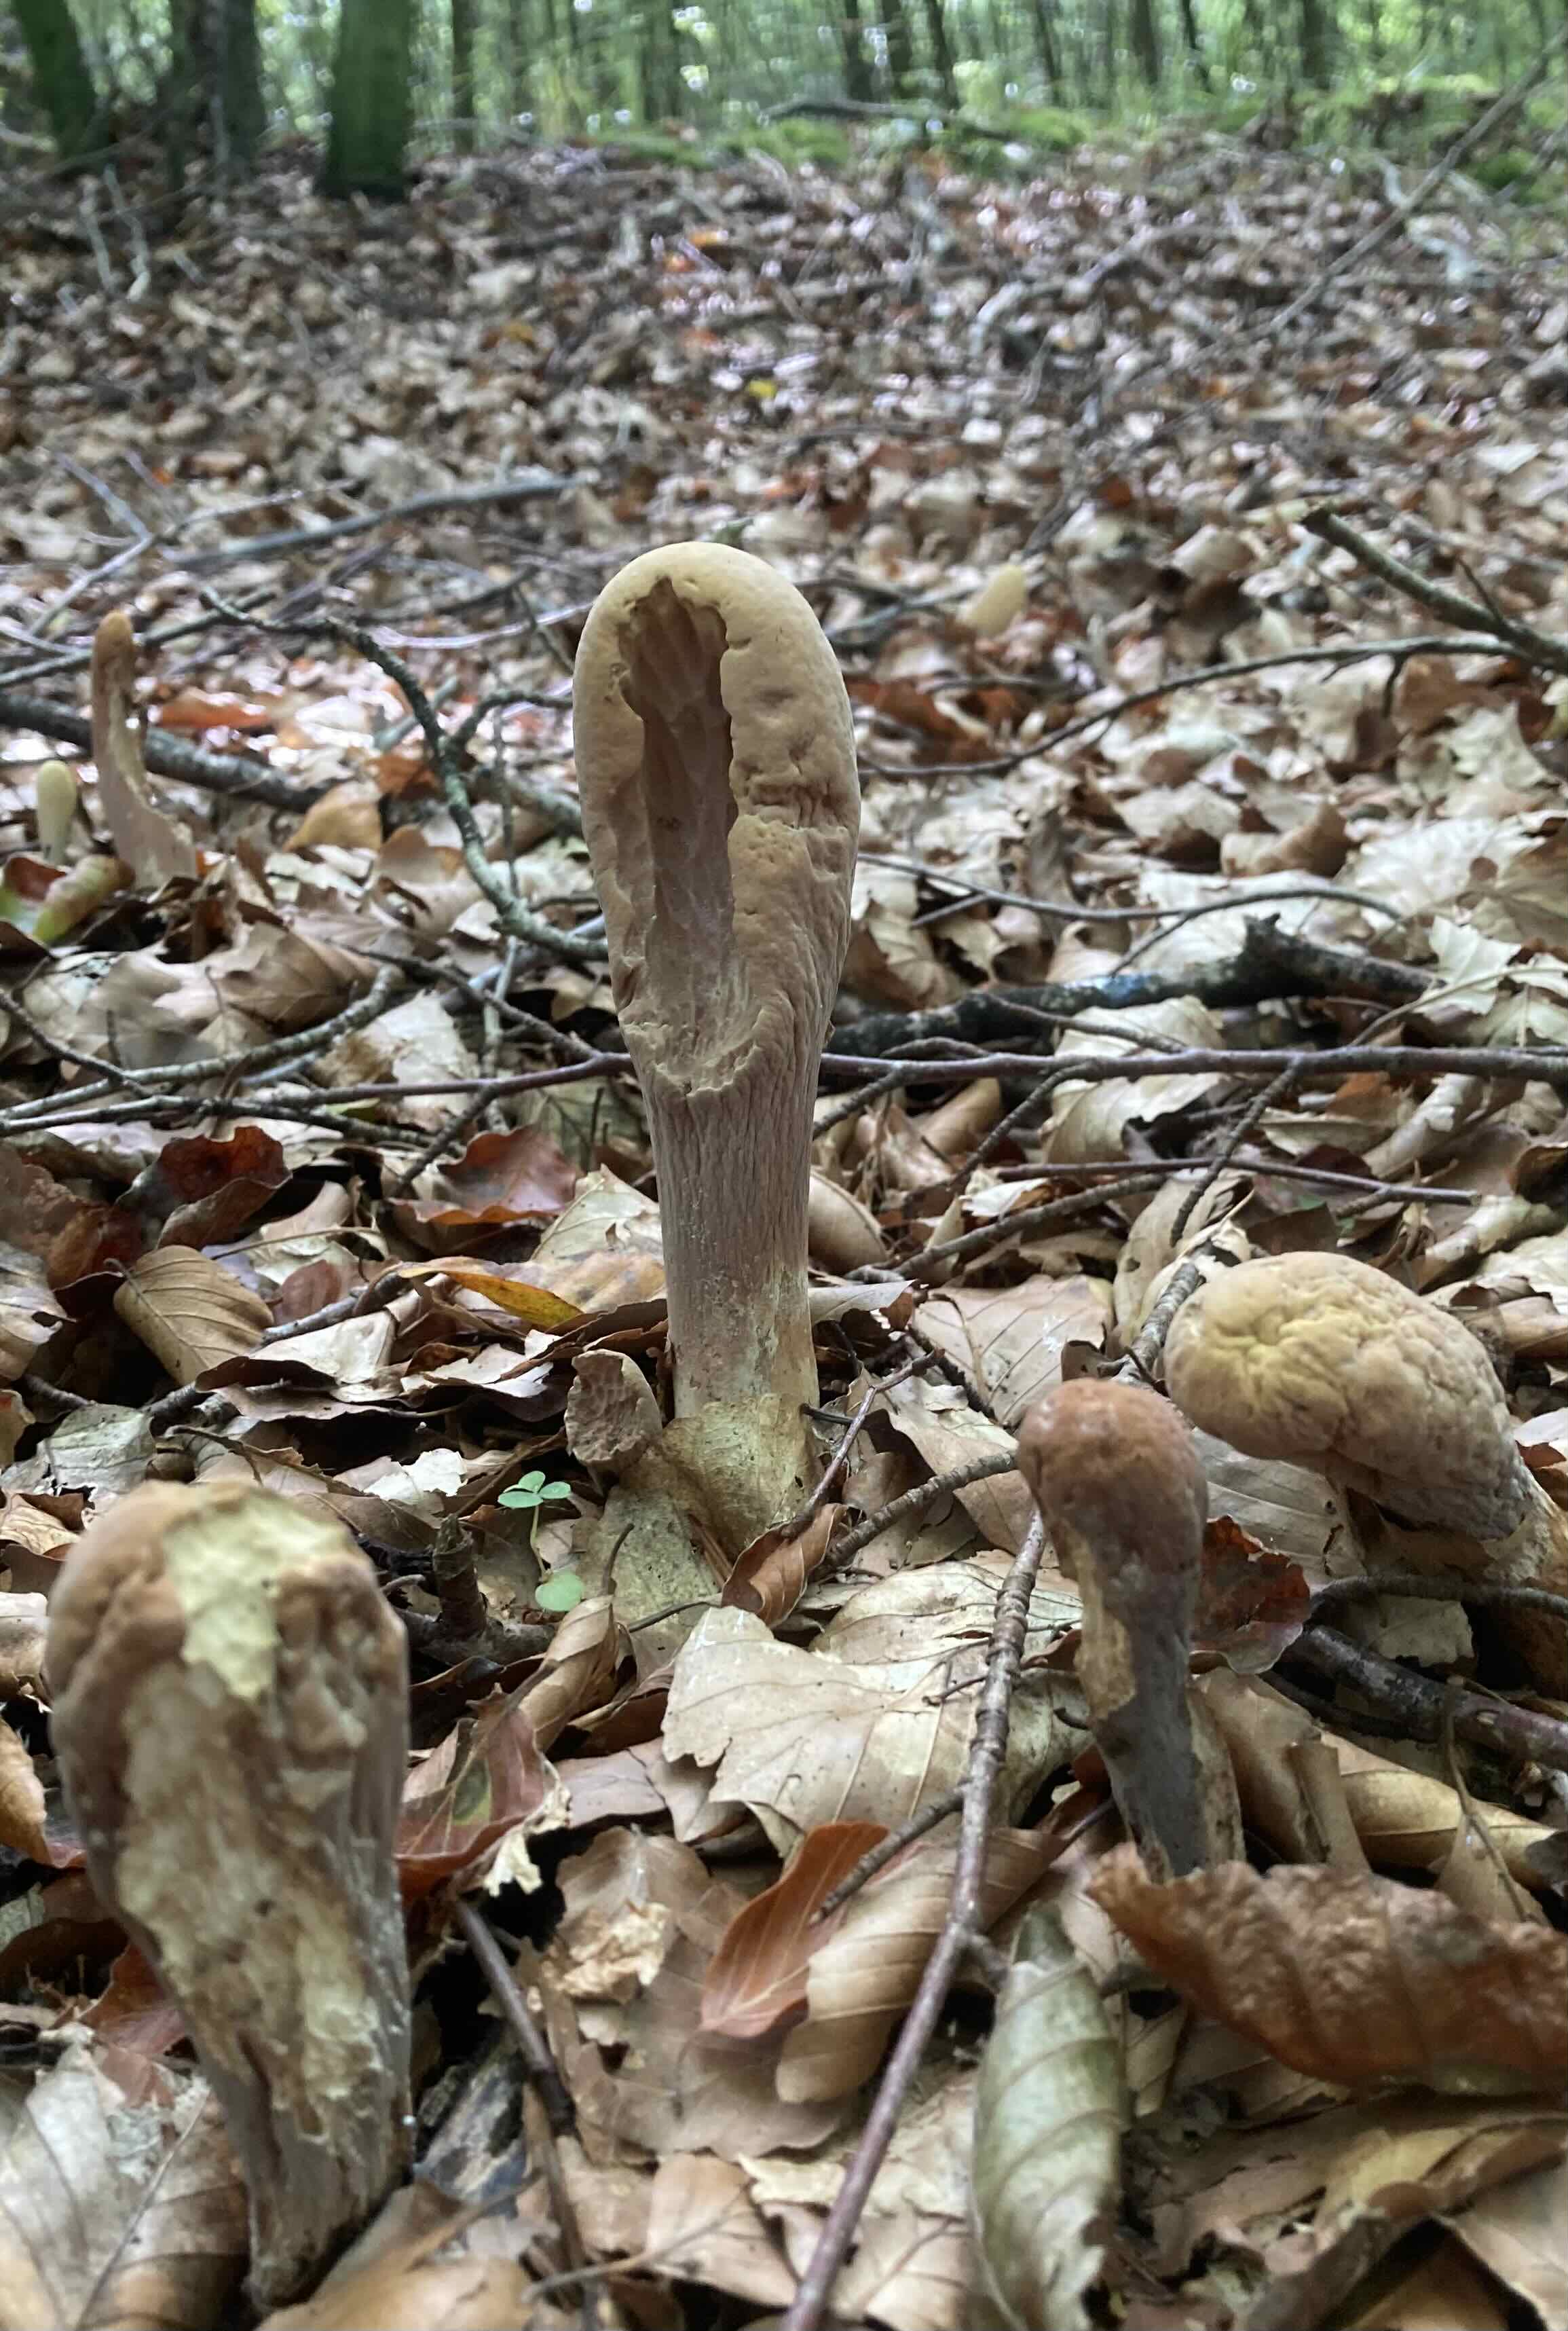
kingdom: Fungi
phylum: Basidiomycota
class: Agaricomycetes
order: Gomphales
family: Clavariadelphaceae
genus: Clavariadelphus
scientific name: Clavariadelphus pistillaris
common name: herkules-kæmpekølle
